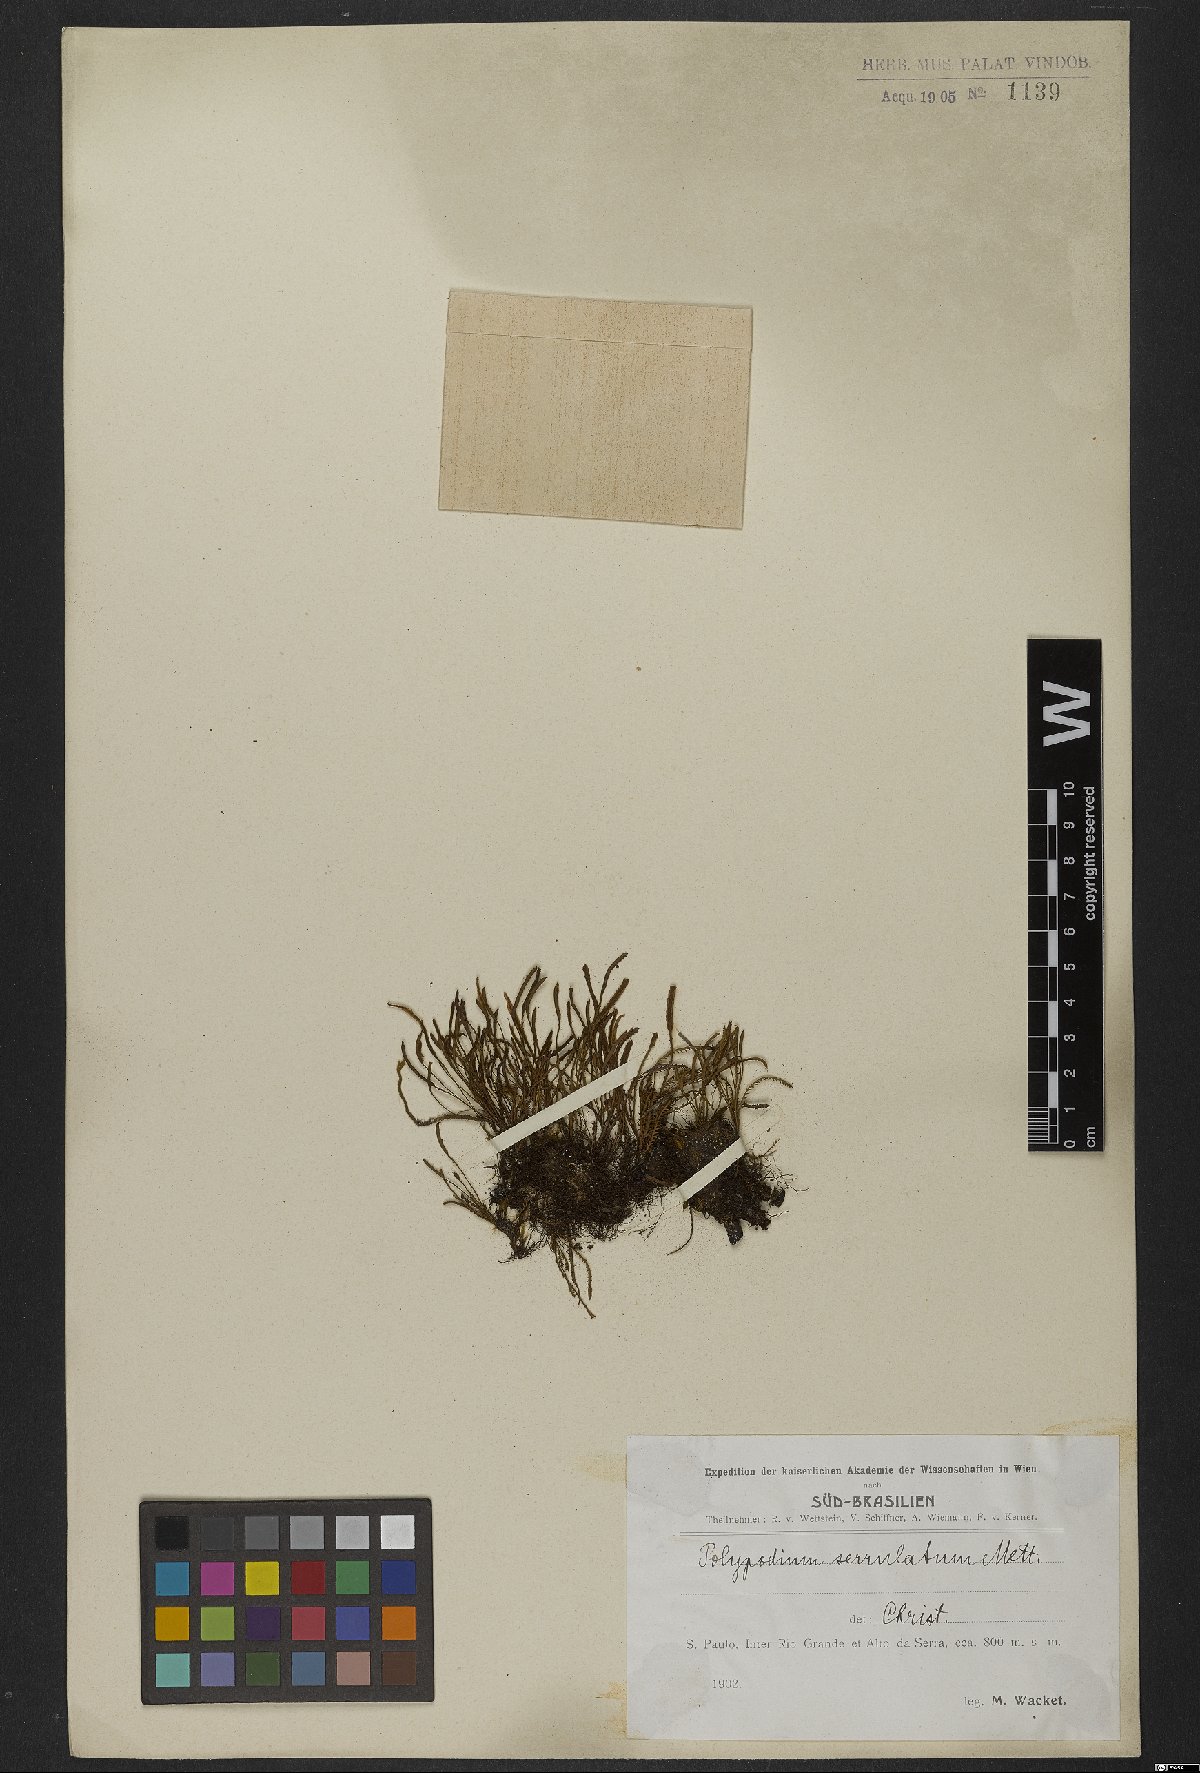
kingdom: Plantae
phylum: Tracheophyta
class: Polypodiopsida
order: Polypodiales
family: Polypodiaceae
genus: Cochlidium
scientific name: Cochlidium serrulatum
